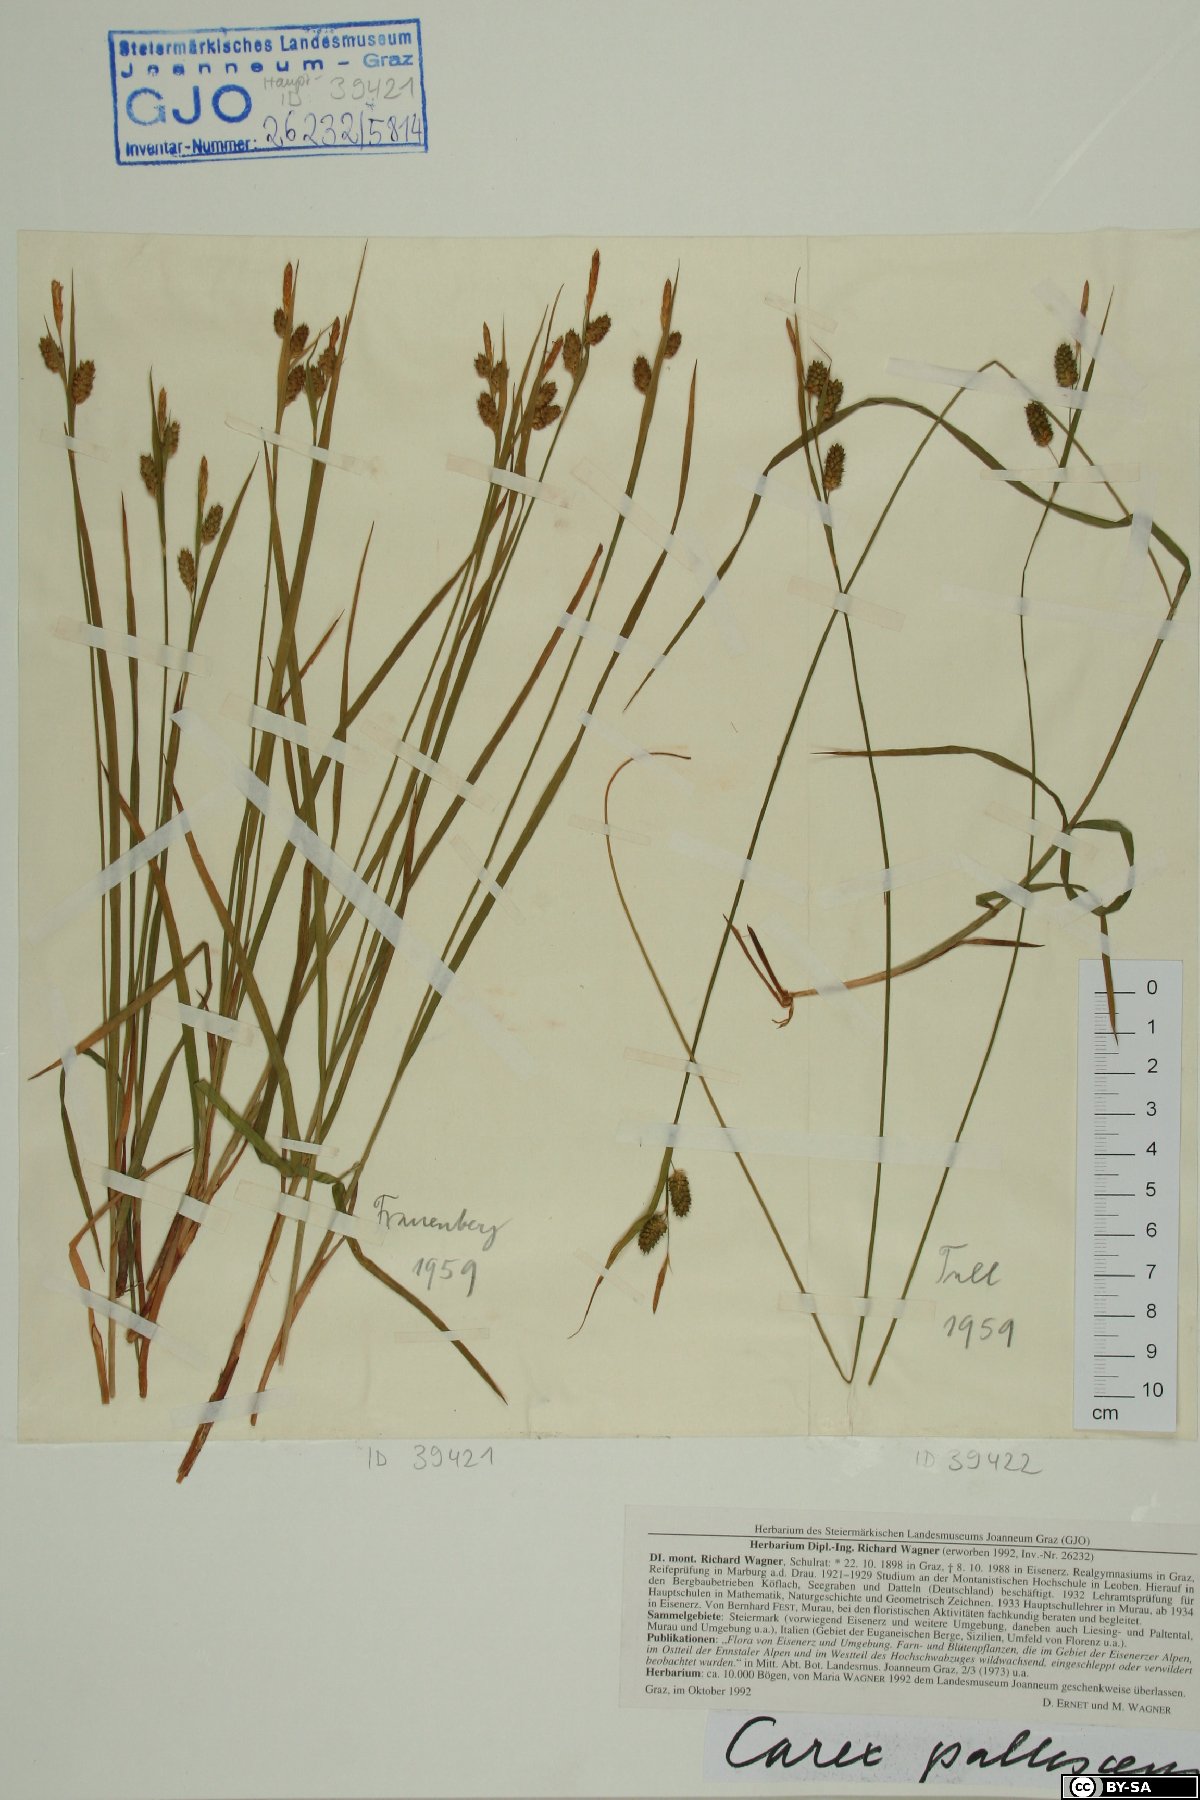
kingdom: Plantae
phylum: Tracheophyta
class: Liliopsida
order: Poales
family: Cyperaceae
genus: Carex
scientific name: Carex pallescens
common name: Pale sedge
